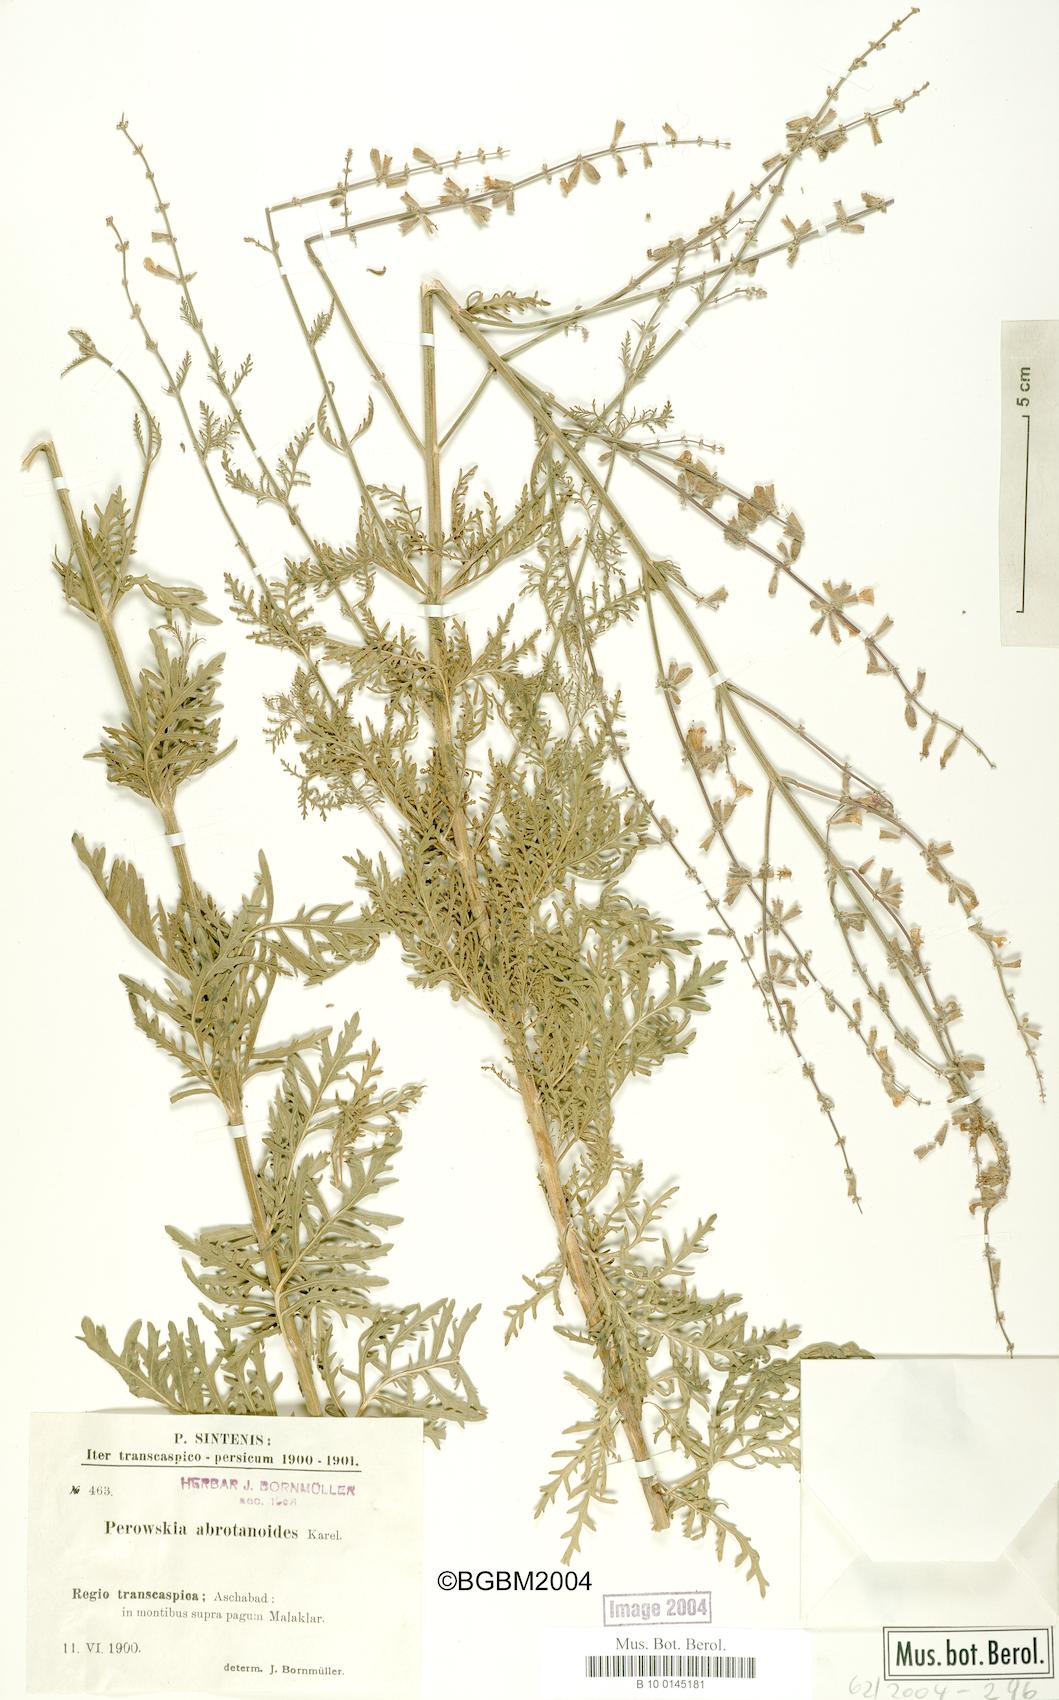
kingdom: Plantae
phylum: Tracheophyta
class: Magnoliopsida
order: Lamiales
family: Lamiaceae
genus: Salvia
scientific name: Salvia abrotanoides
